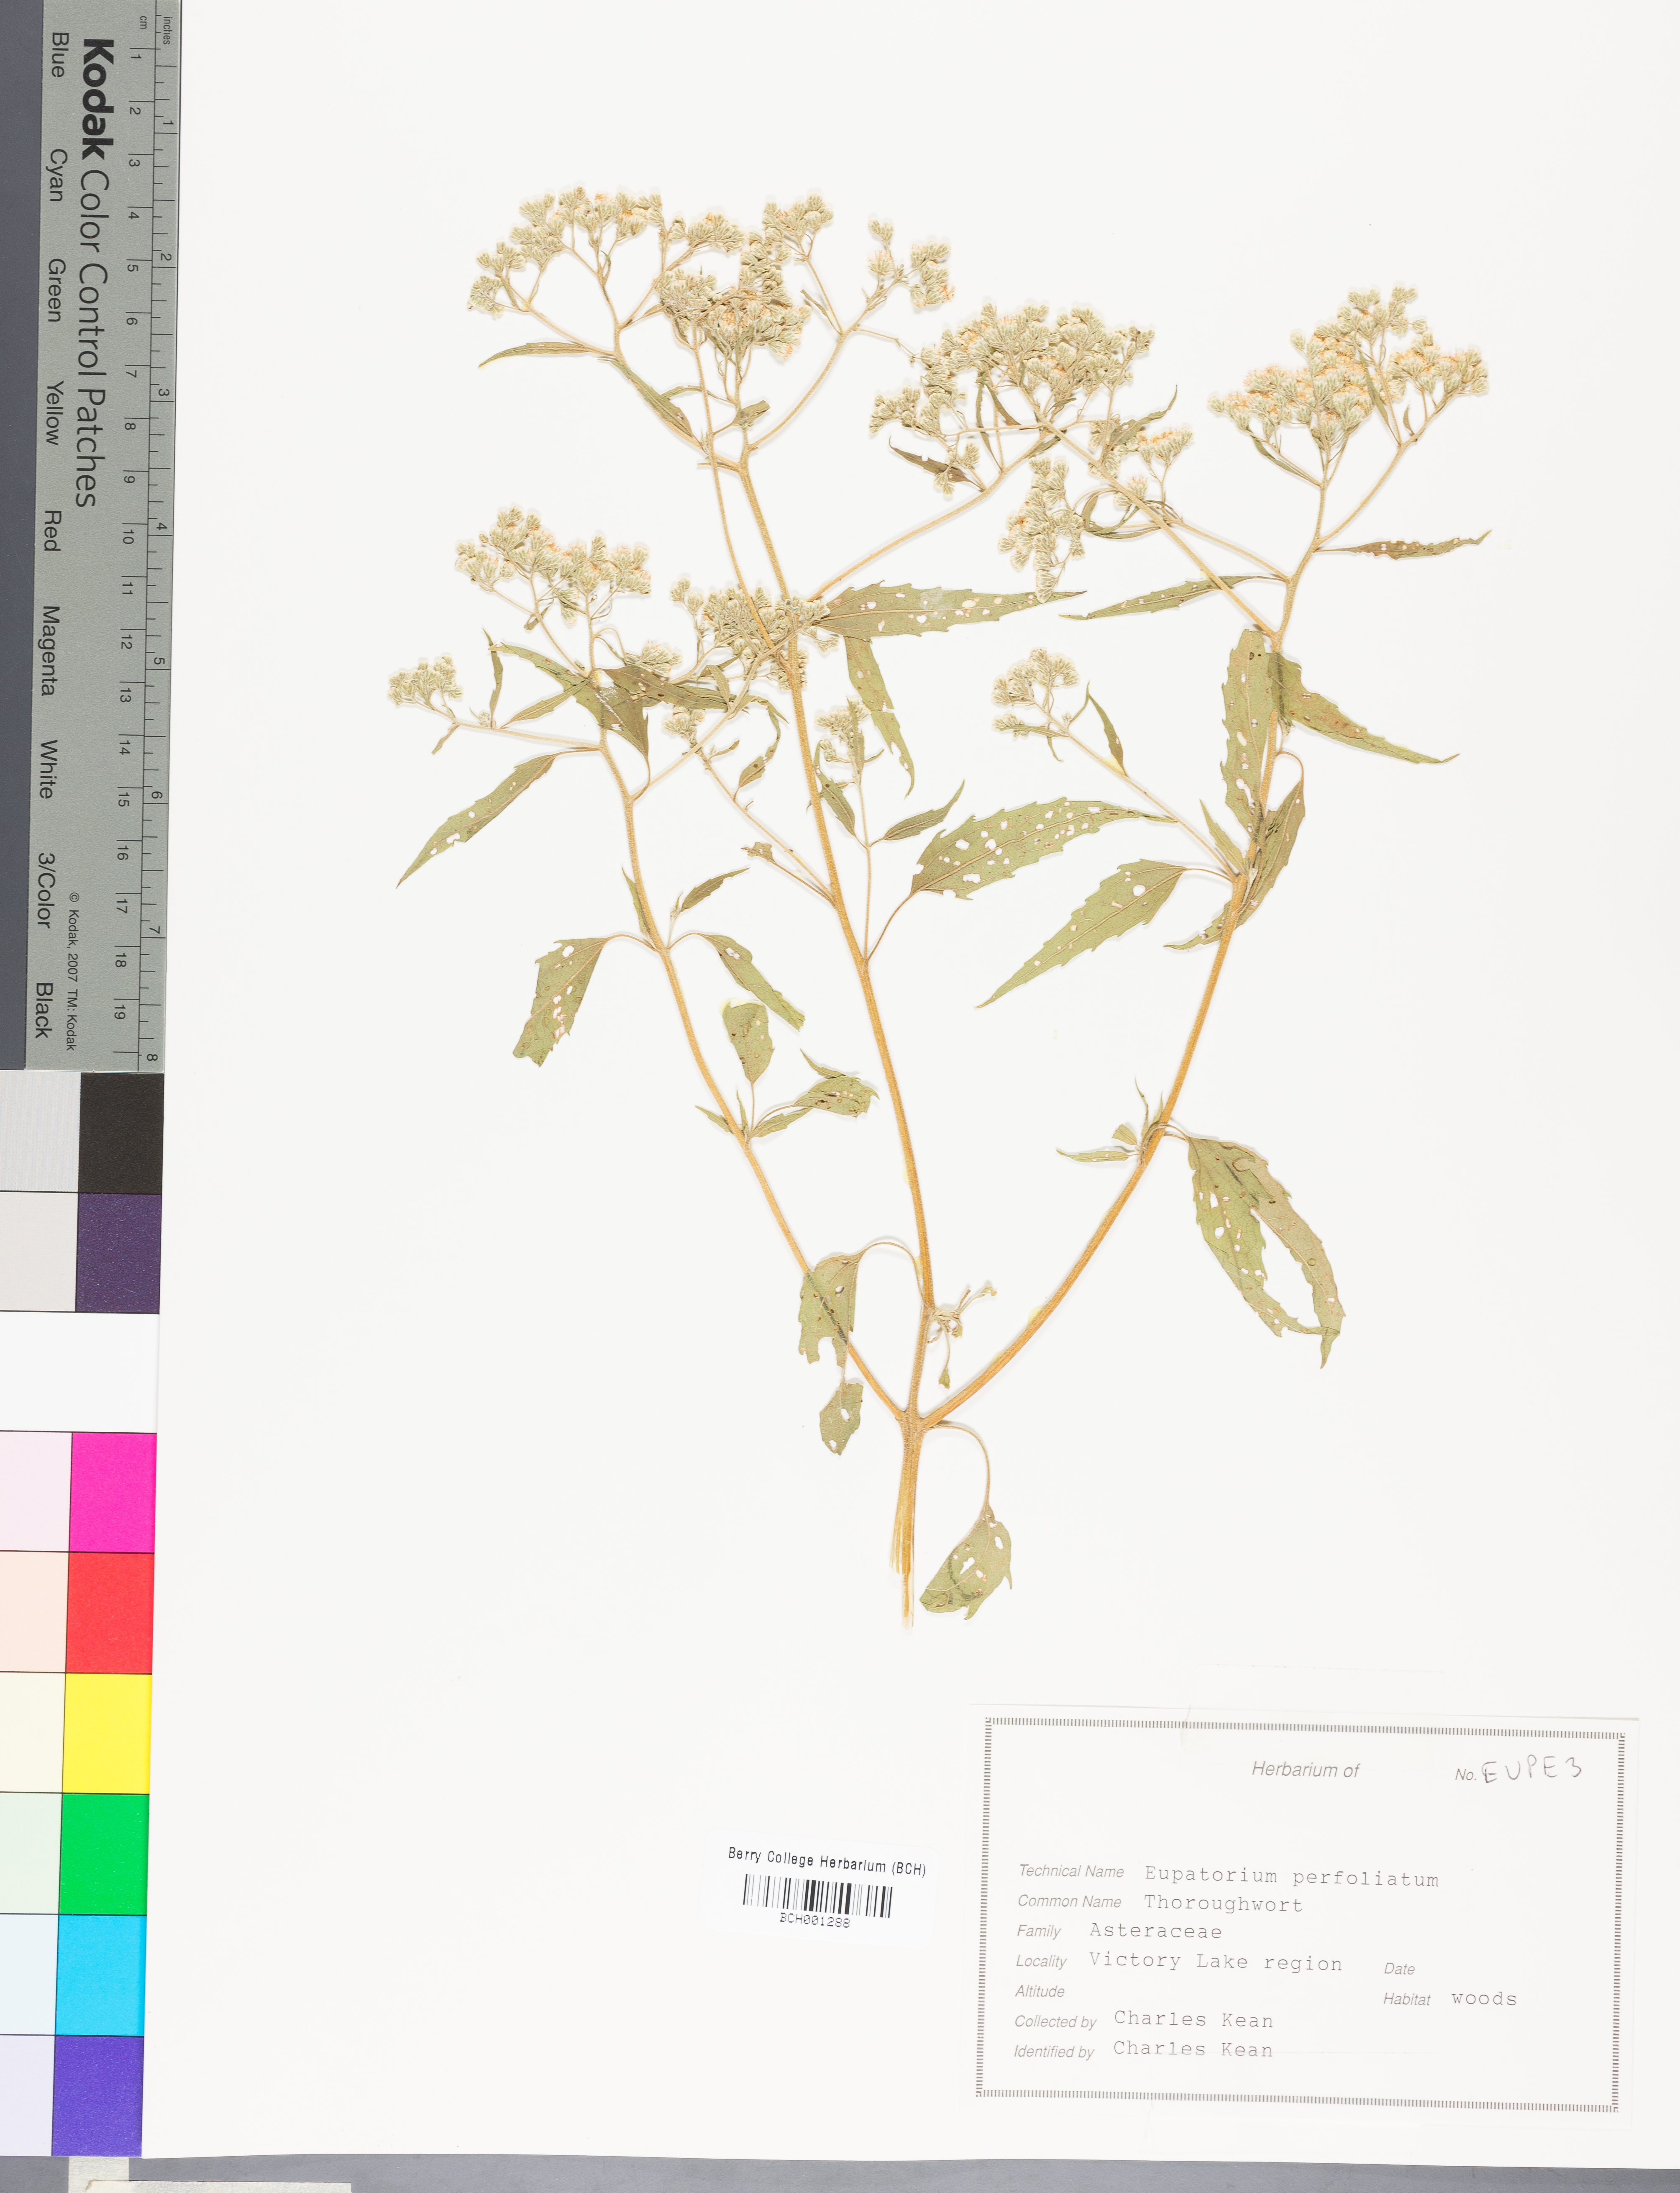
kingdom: Plantae
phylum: Tracheophyta
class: Magnoliopsida
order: Asterales
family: Asteraceae
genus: Nabalus
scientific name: Nabalus albus
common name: White rattlesnakeroot
